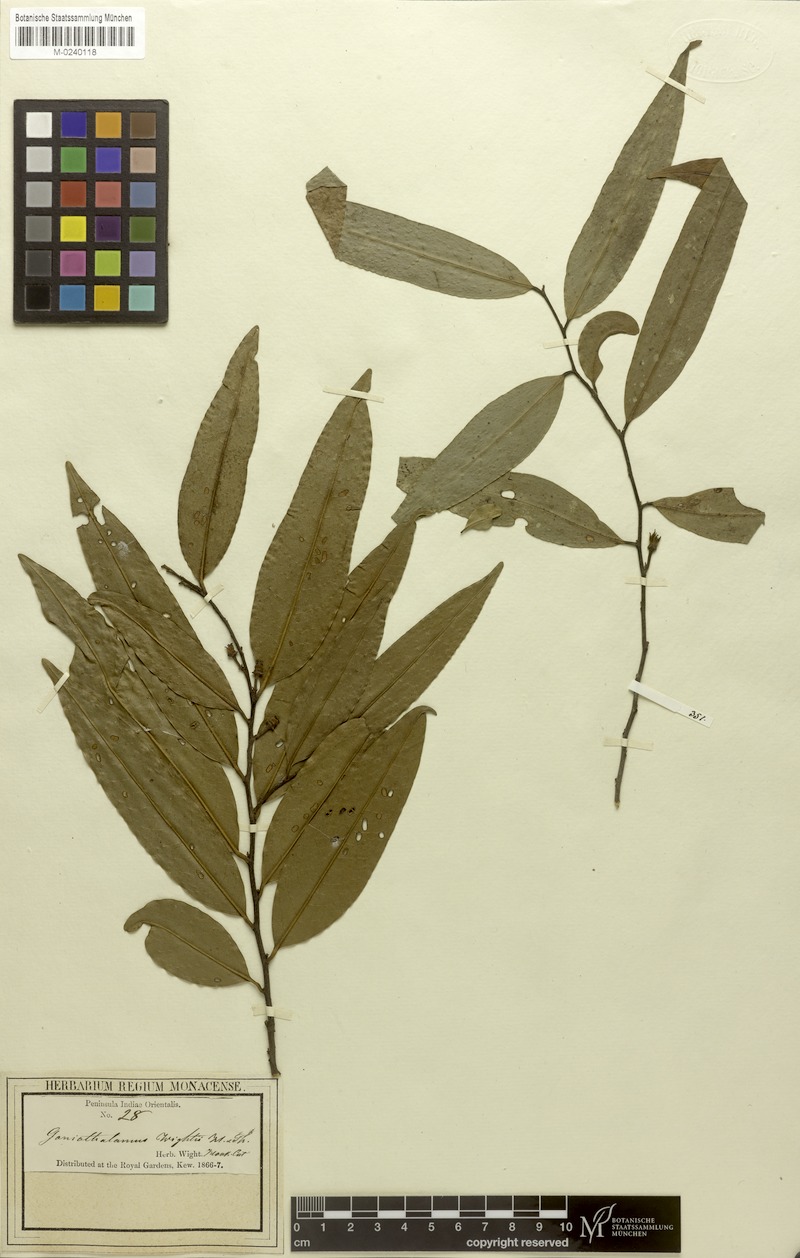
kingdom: Plantae
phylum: Tracheophyta
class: Magnoliopsida
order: Magnoliales
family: Annonaceae
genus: Goniothalamus
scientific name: Goniothalamus wightii
